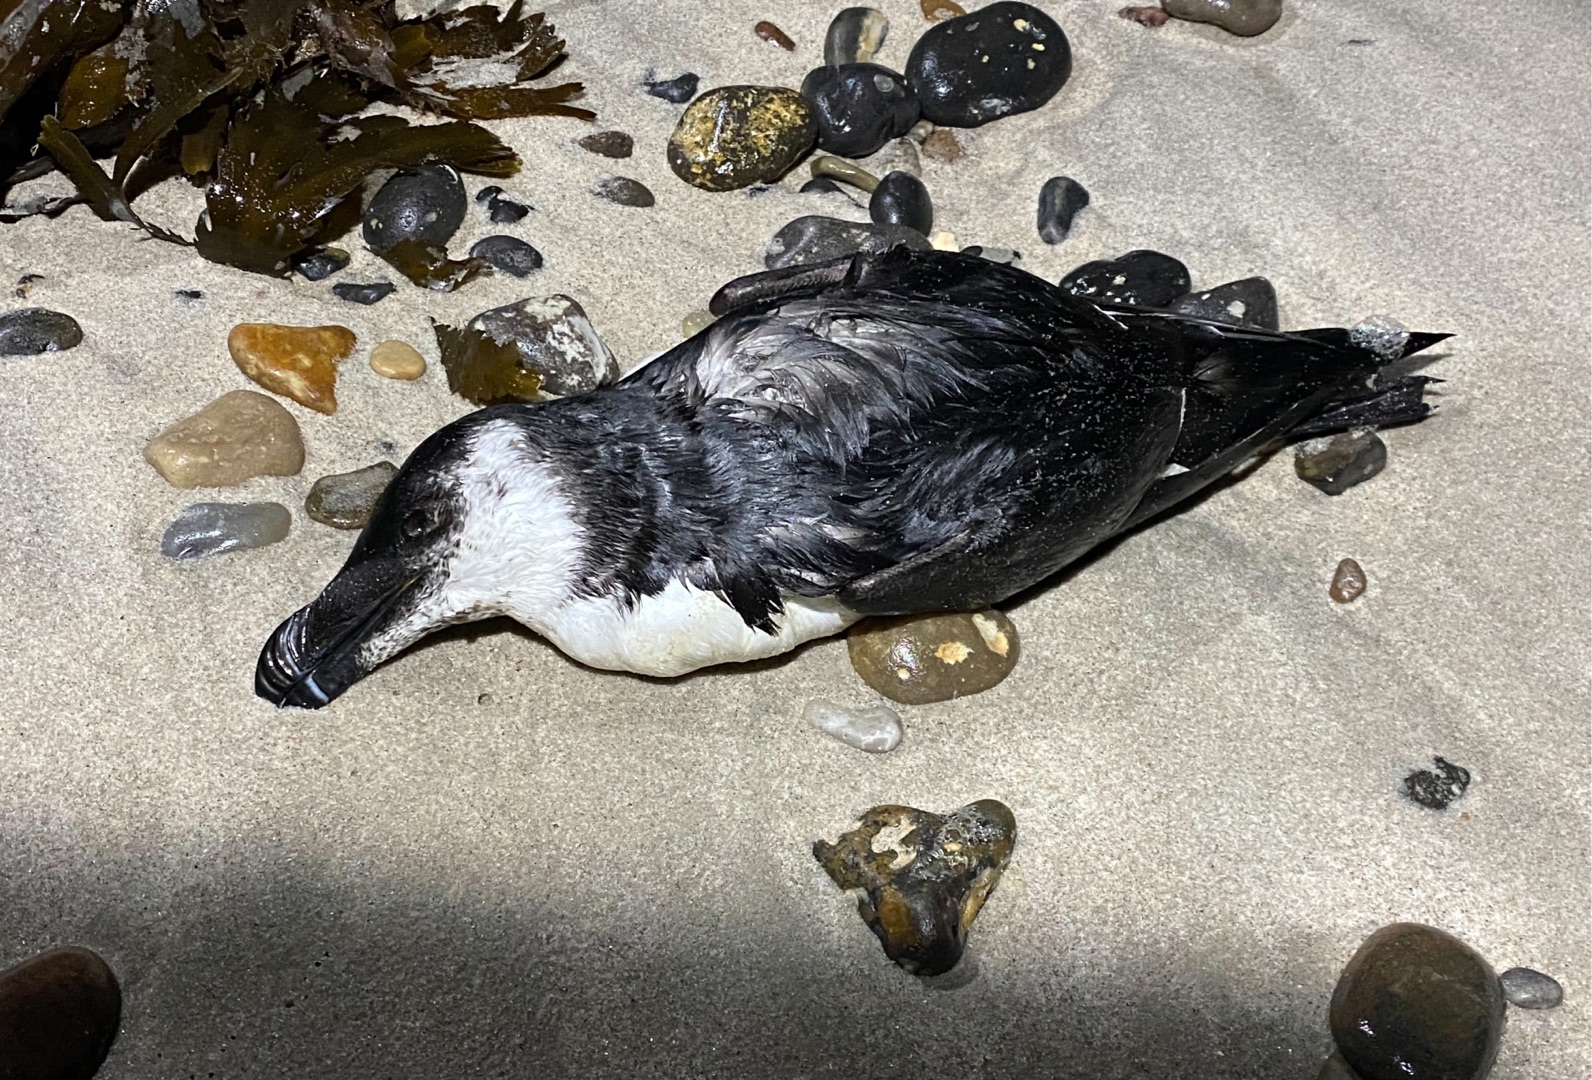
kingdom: Animalia
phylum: Chordata
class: Aves
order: Charadriiformes
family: Alcidae
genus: Alca
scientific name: Alca torda
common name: Alk
